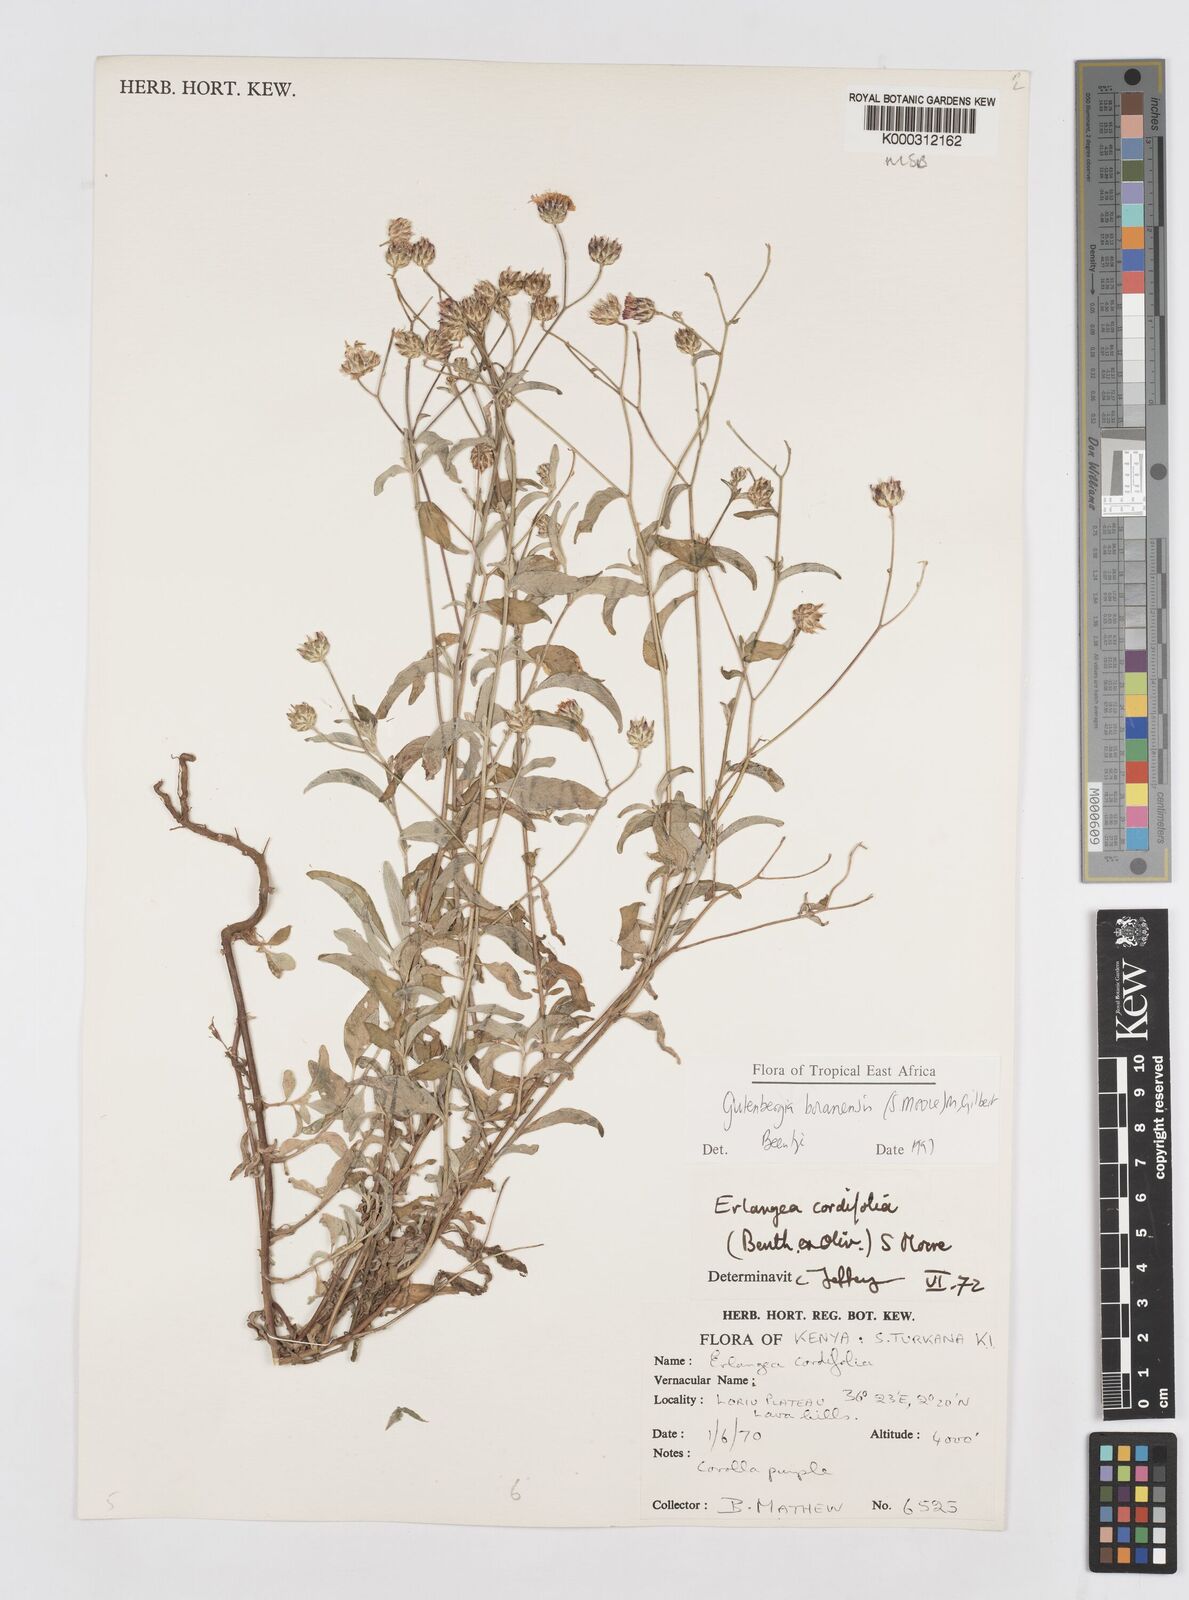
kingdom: Plantae
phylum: Tracheophyta
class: Magnoliopsida
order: Asterales
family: Asteraceae
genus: Gutenbergia
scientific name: Gutenbergia boranensis
